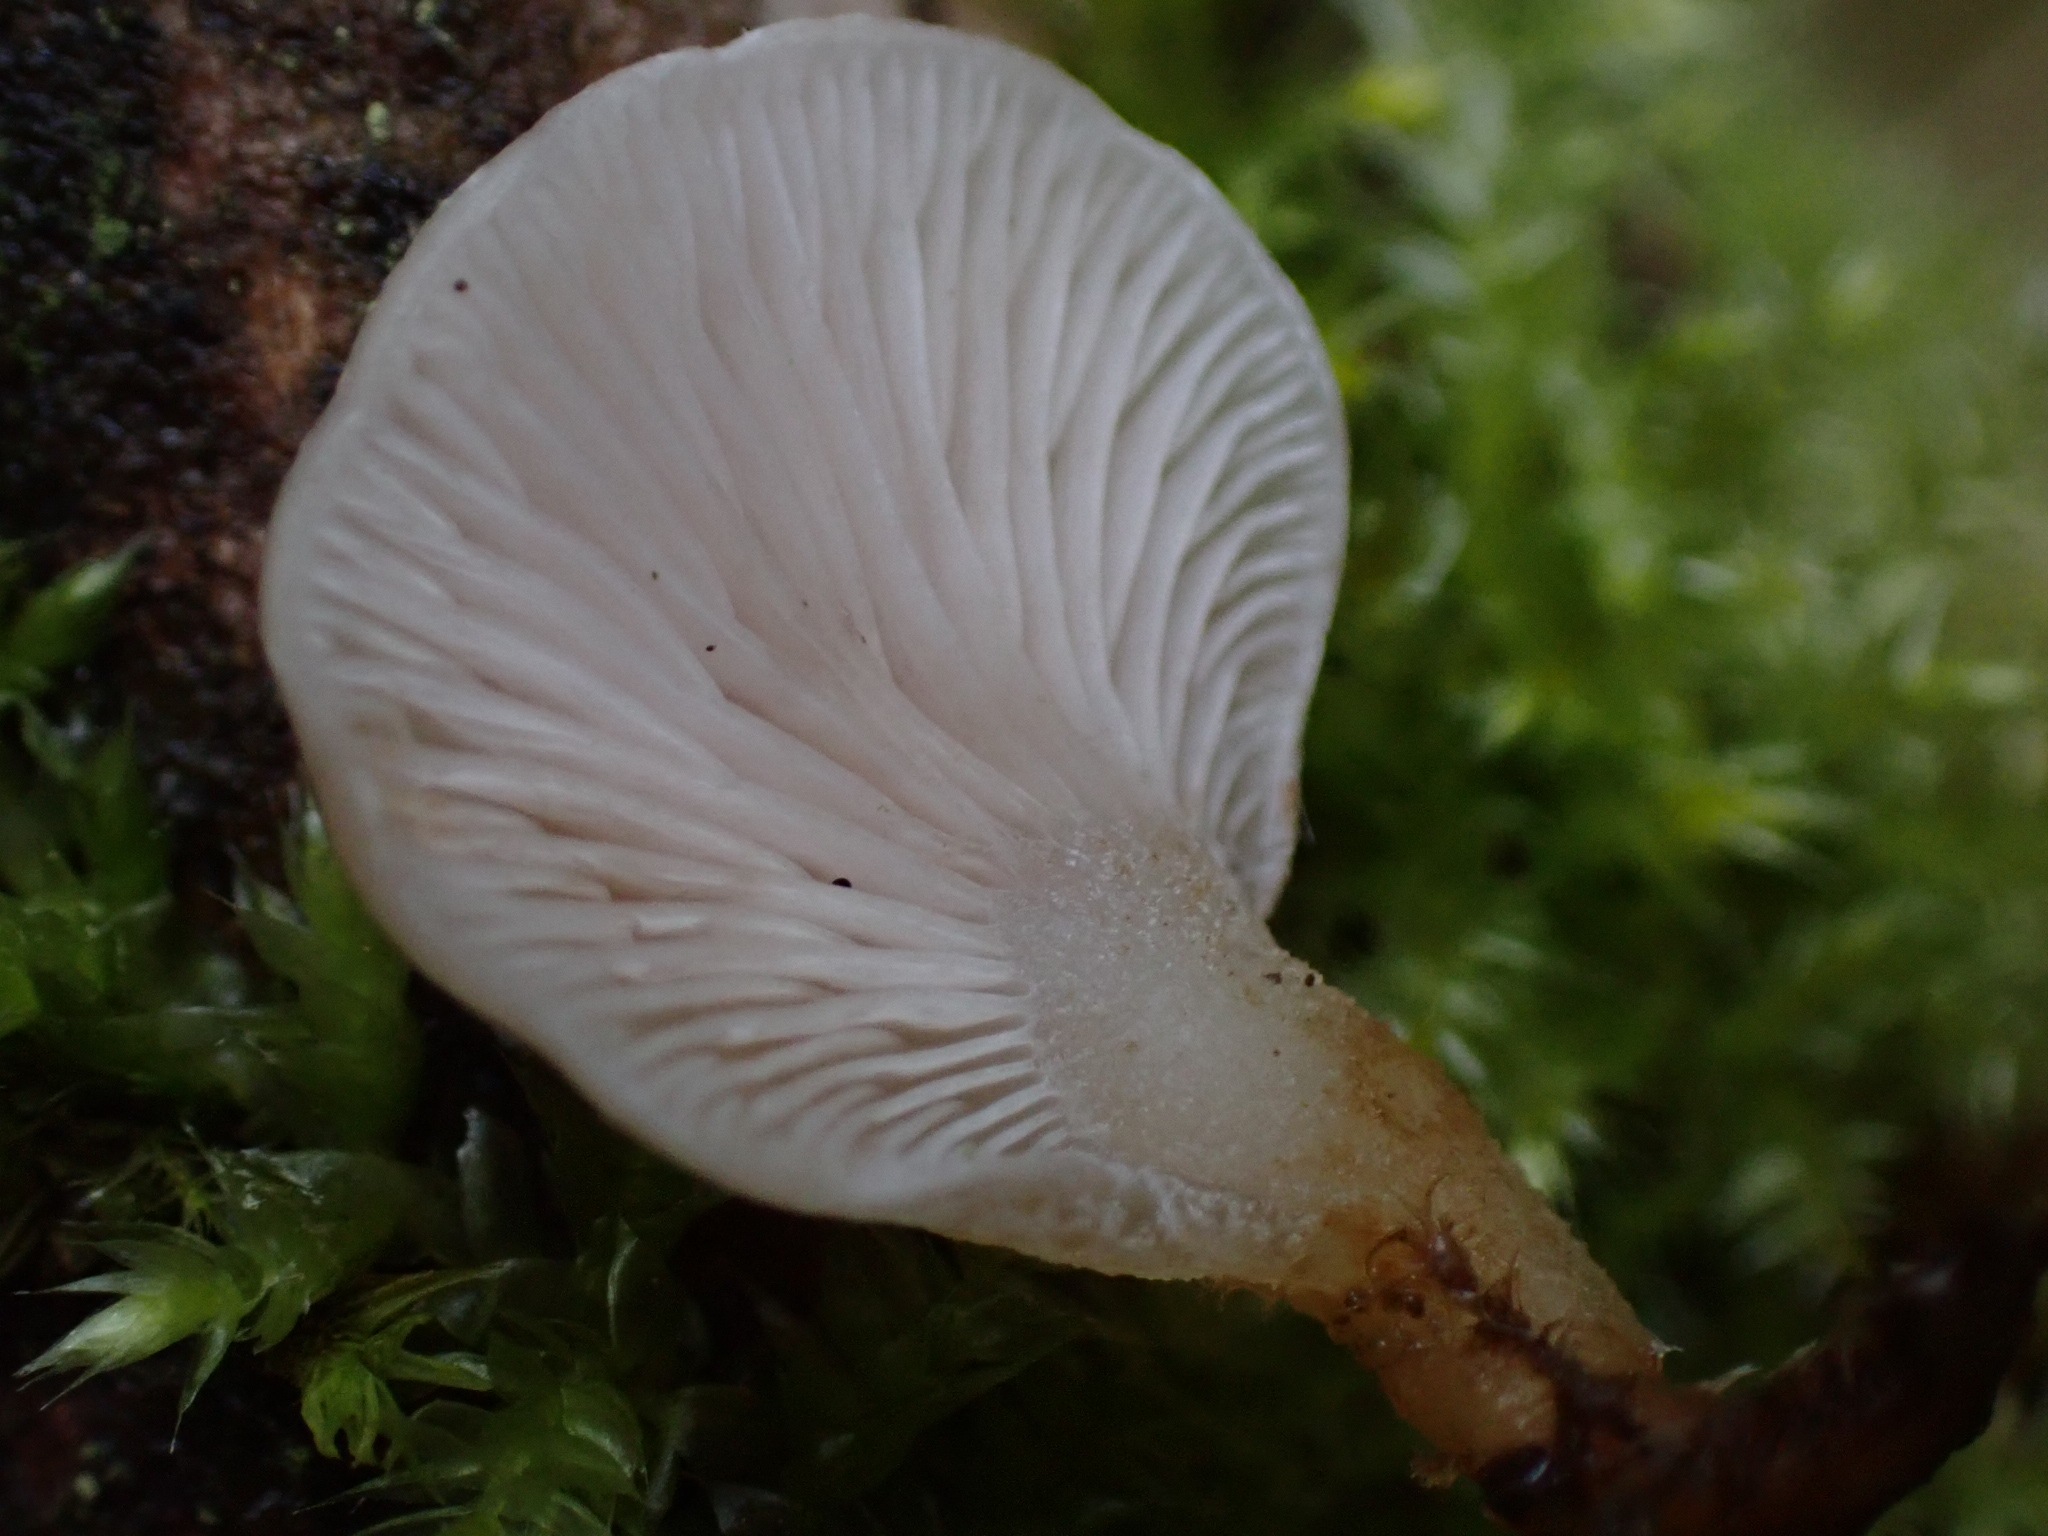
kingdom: Fungi
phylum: Basidiomycota
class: Agaricomycetes
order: Agaricales
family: Mycenaceae
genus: Panellus
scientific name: Panellus mitis
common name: mild epaulethat
